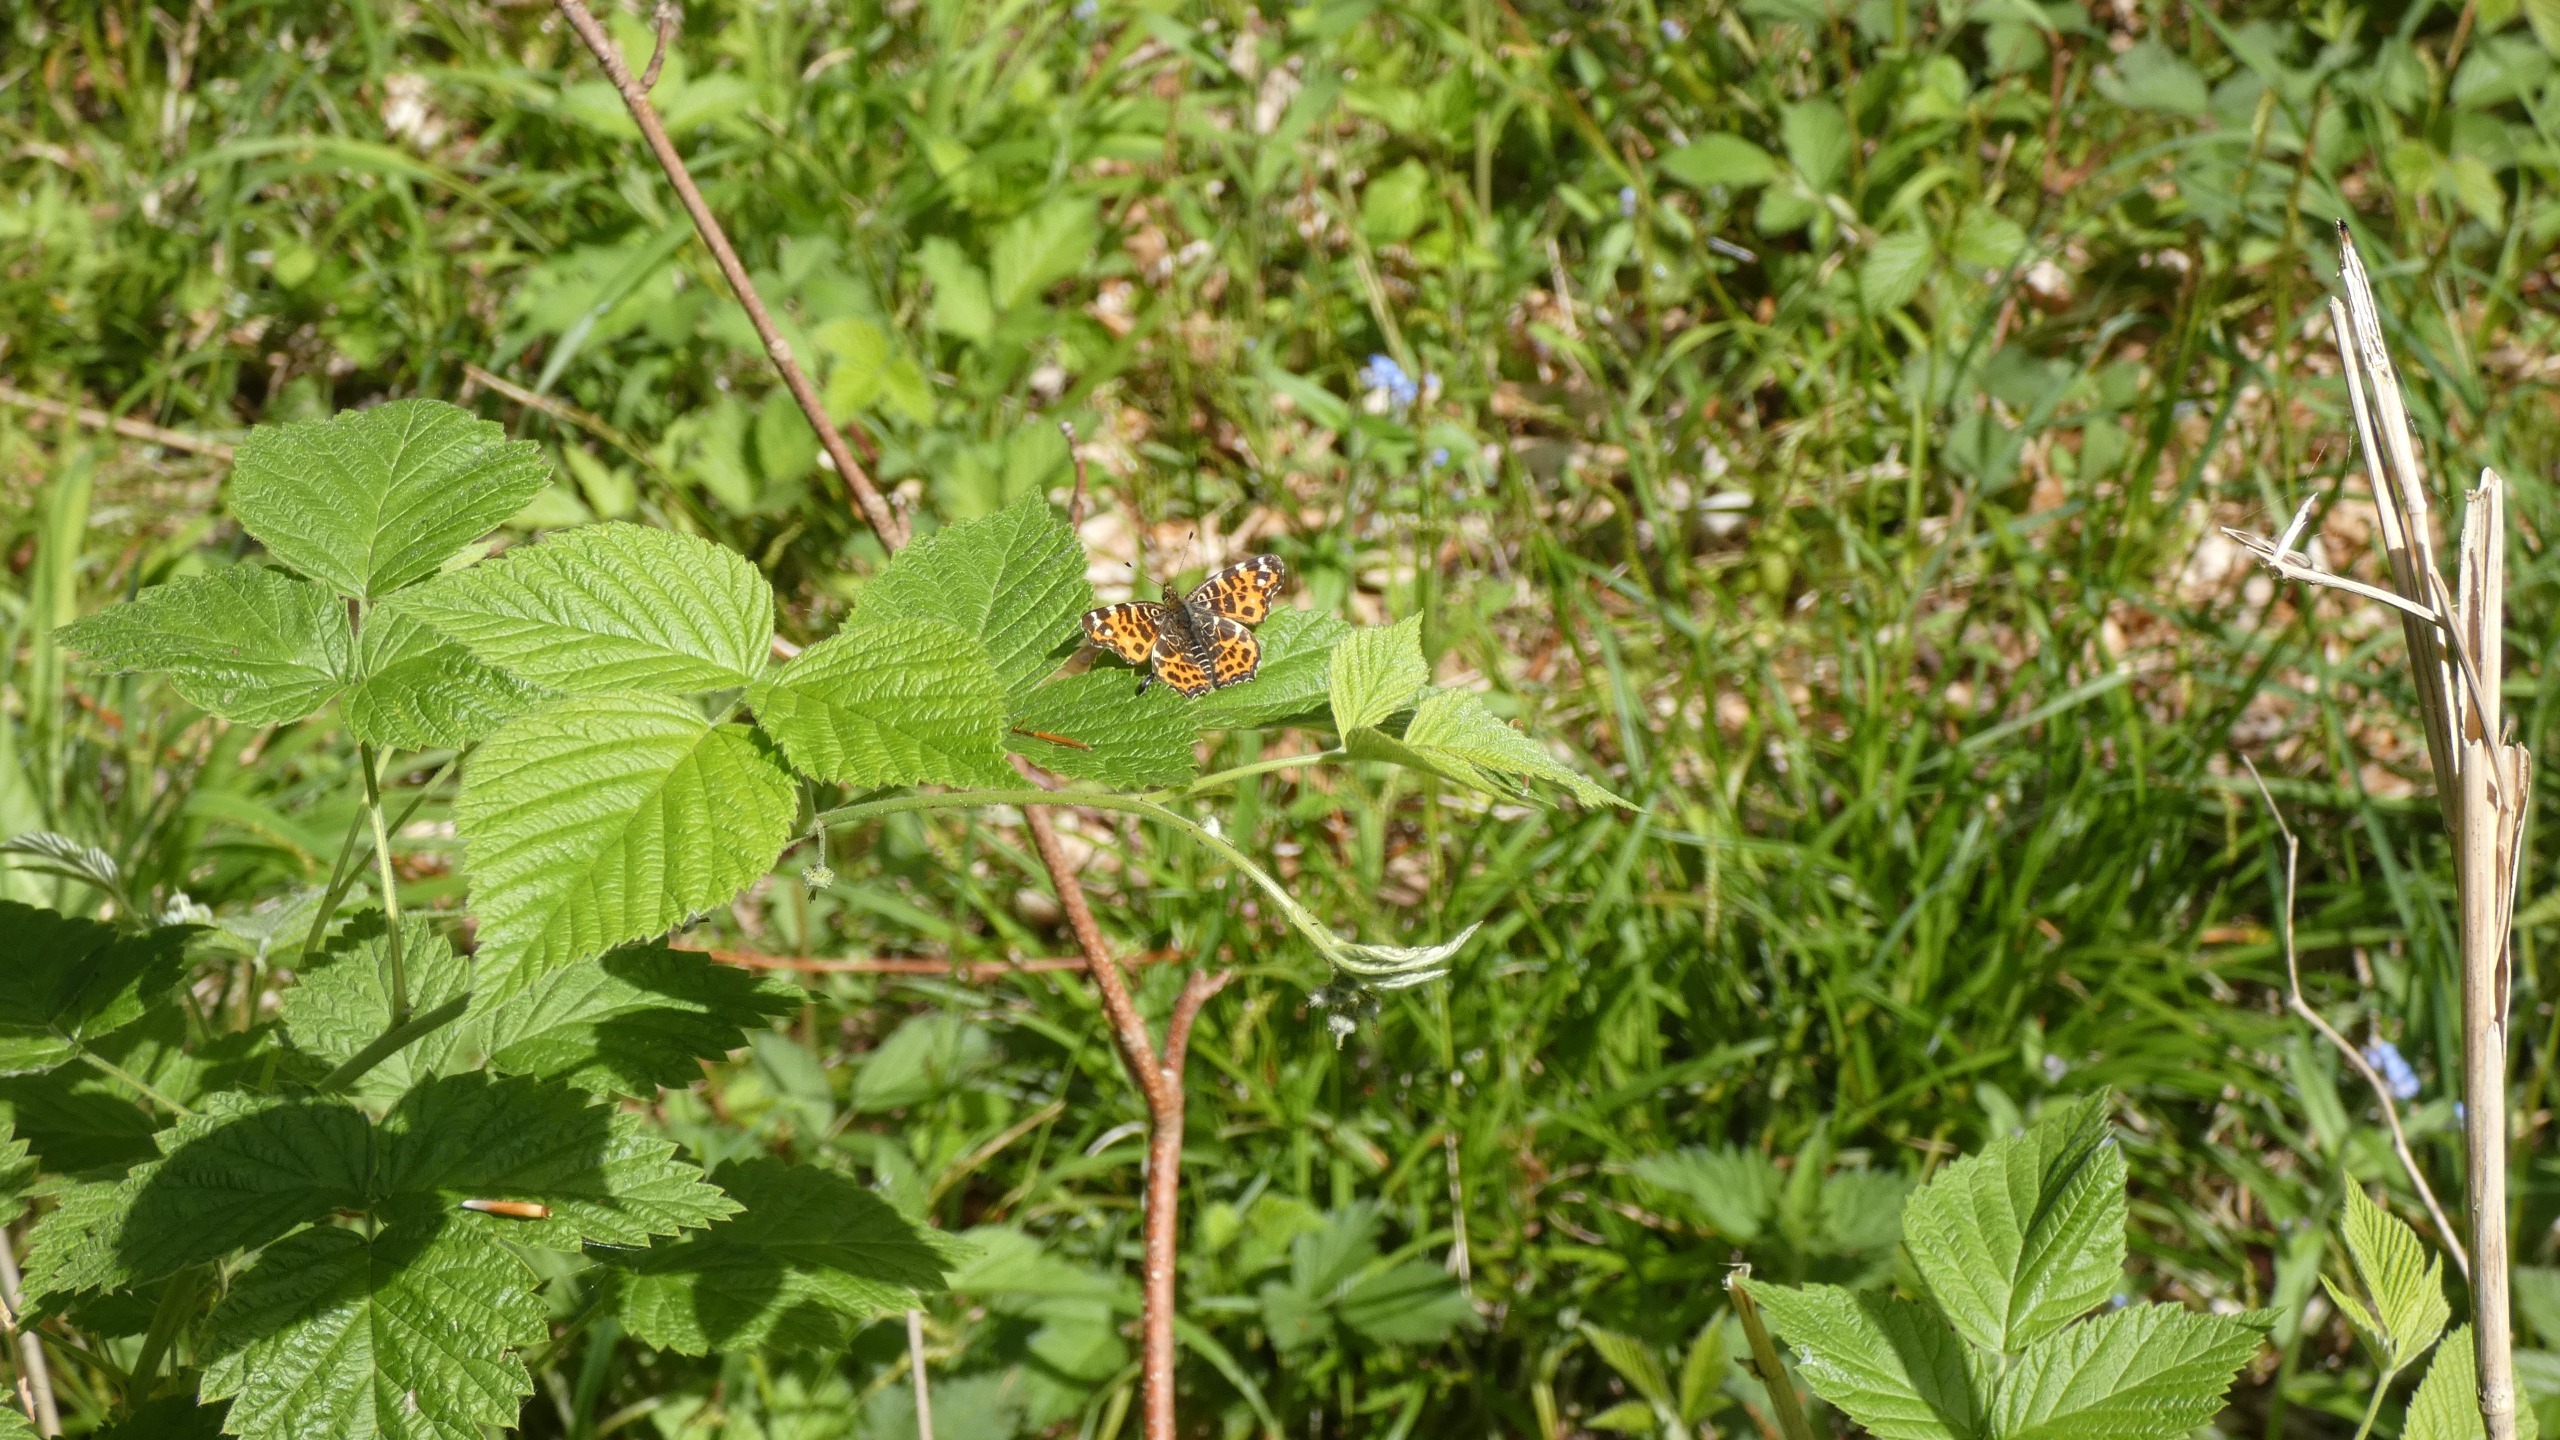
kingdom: Animalia
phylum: Arthropoda
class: Insecta
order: Lepidoptera
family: Nymphalidae
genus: Araschnia
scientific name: Araschnia levana
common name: Nældesommerfugl
